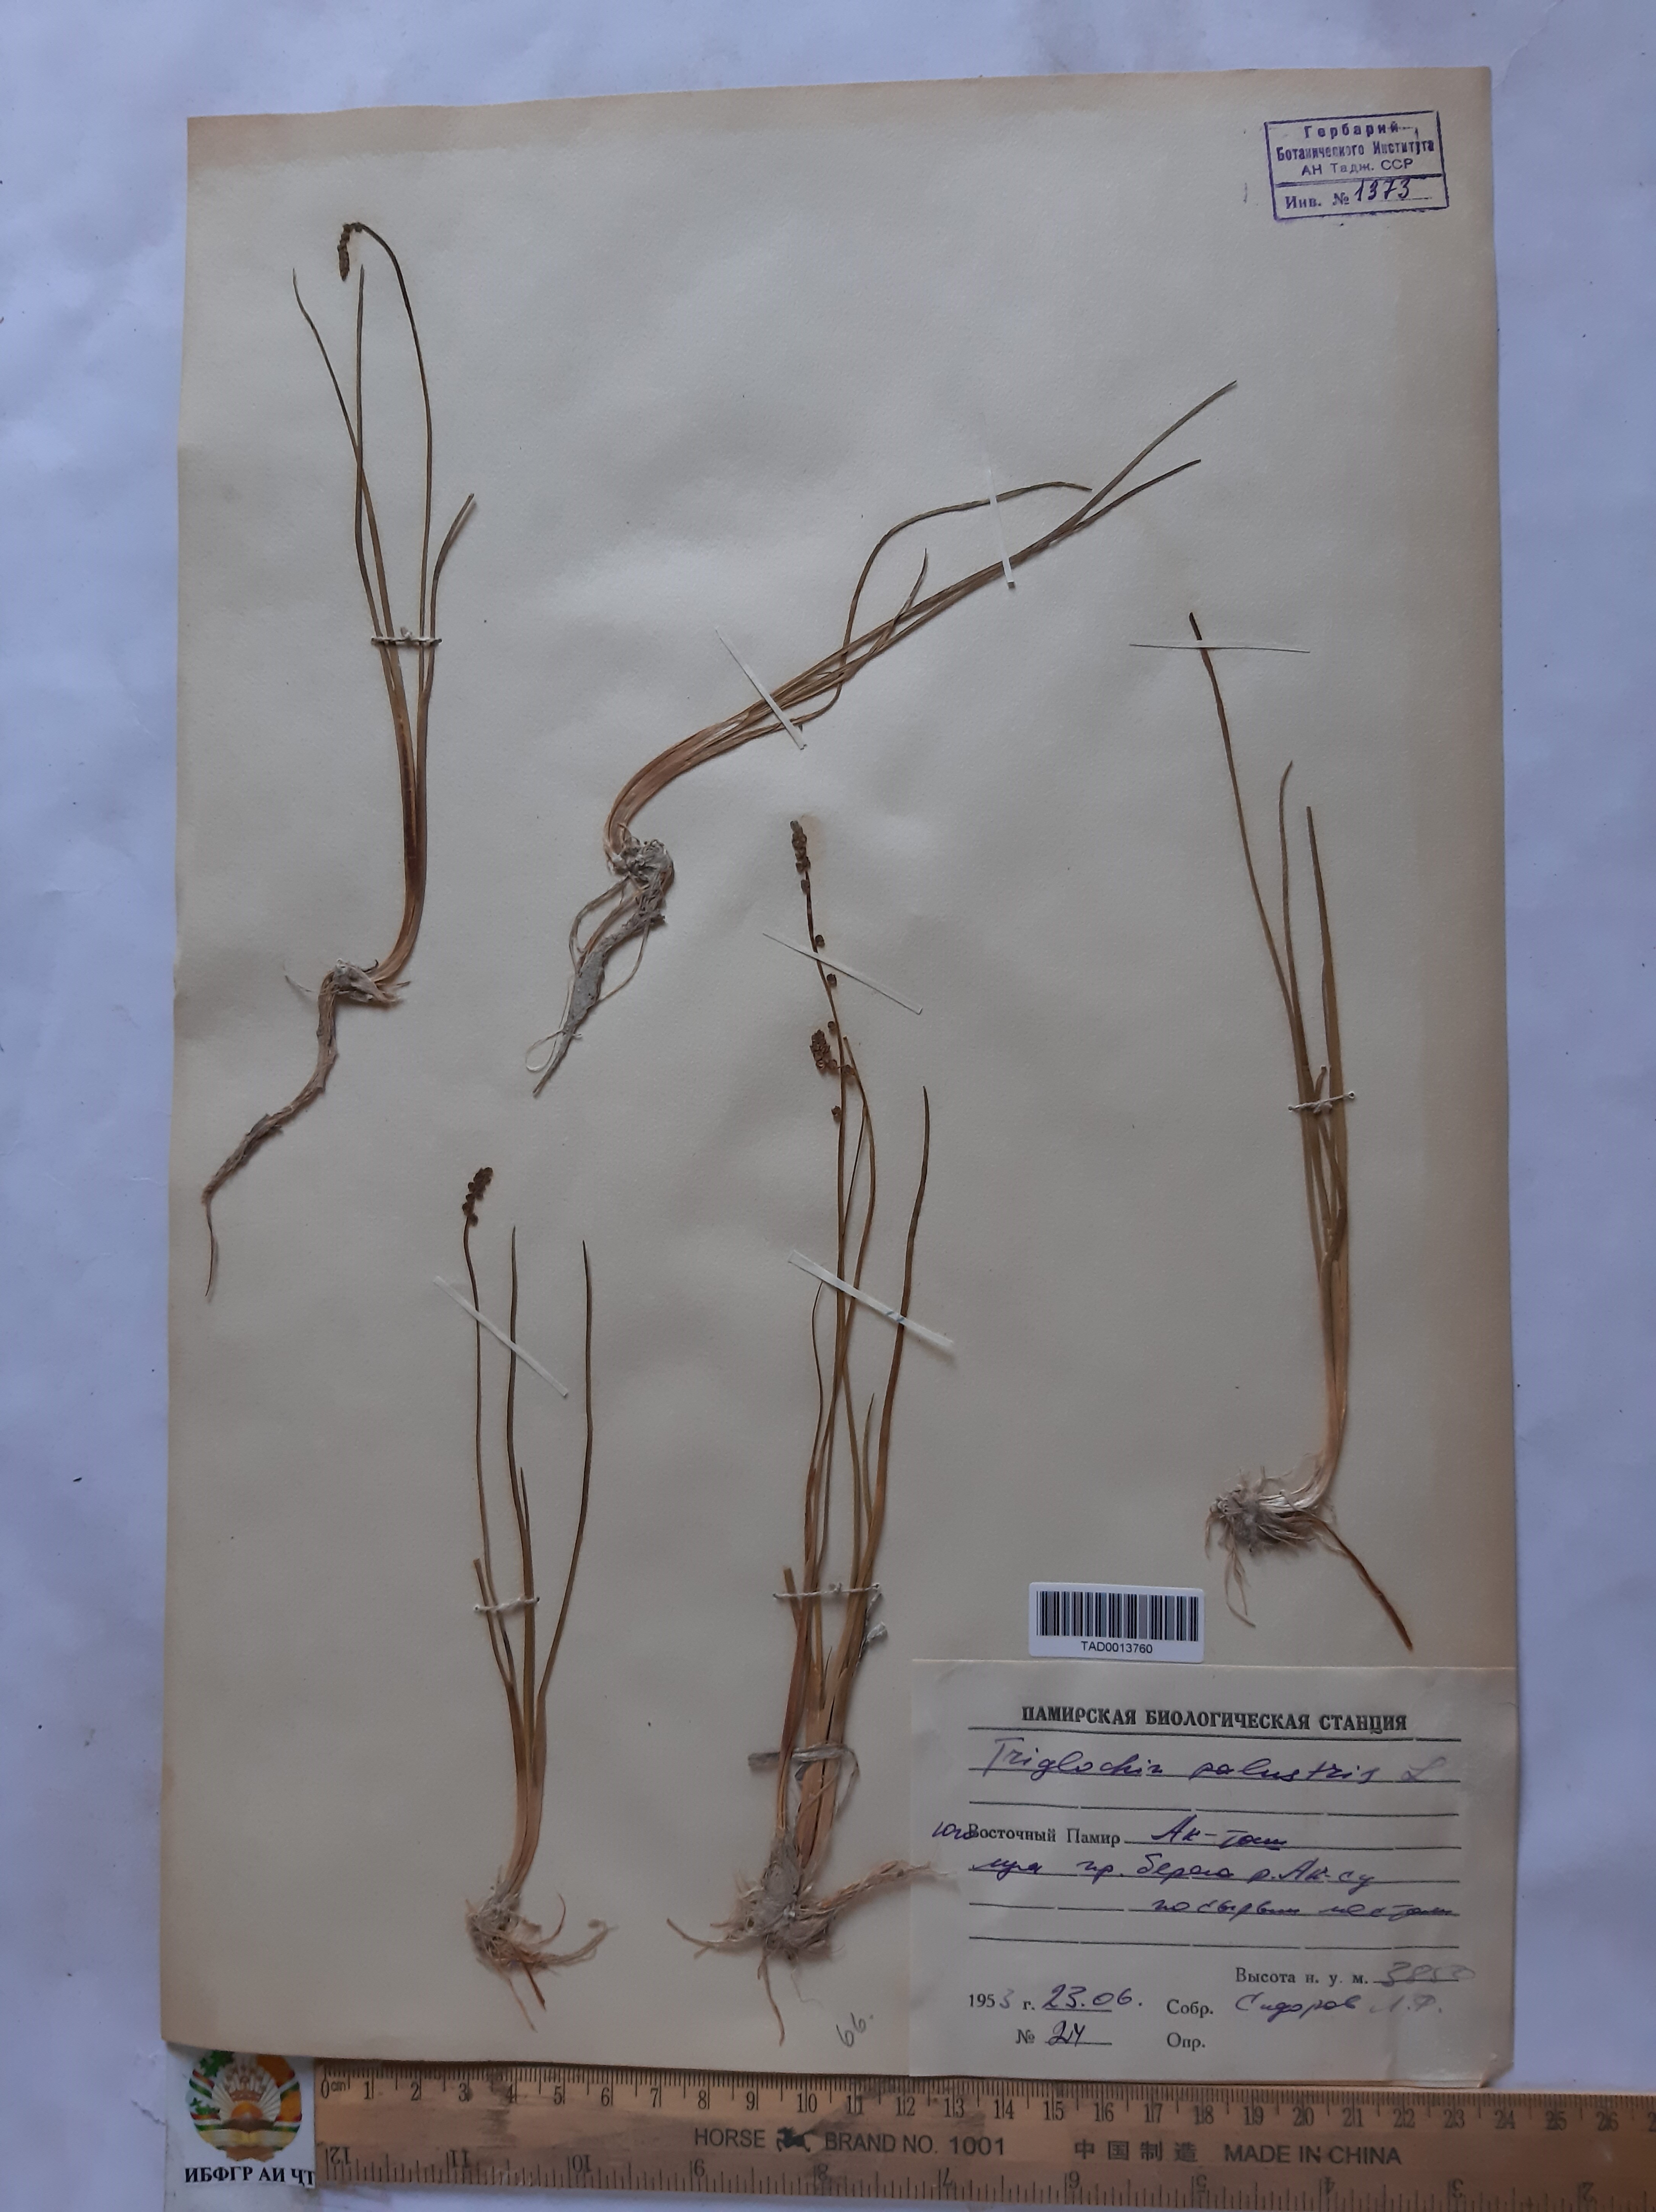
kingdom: Plantae
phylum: Tracheophyta
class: Liliopsida
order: Alismatales
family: Juncaginaceae
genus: Triglochin
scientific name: Triglochin palustris
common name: Marsh arrowgrass
